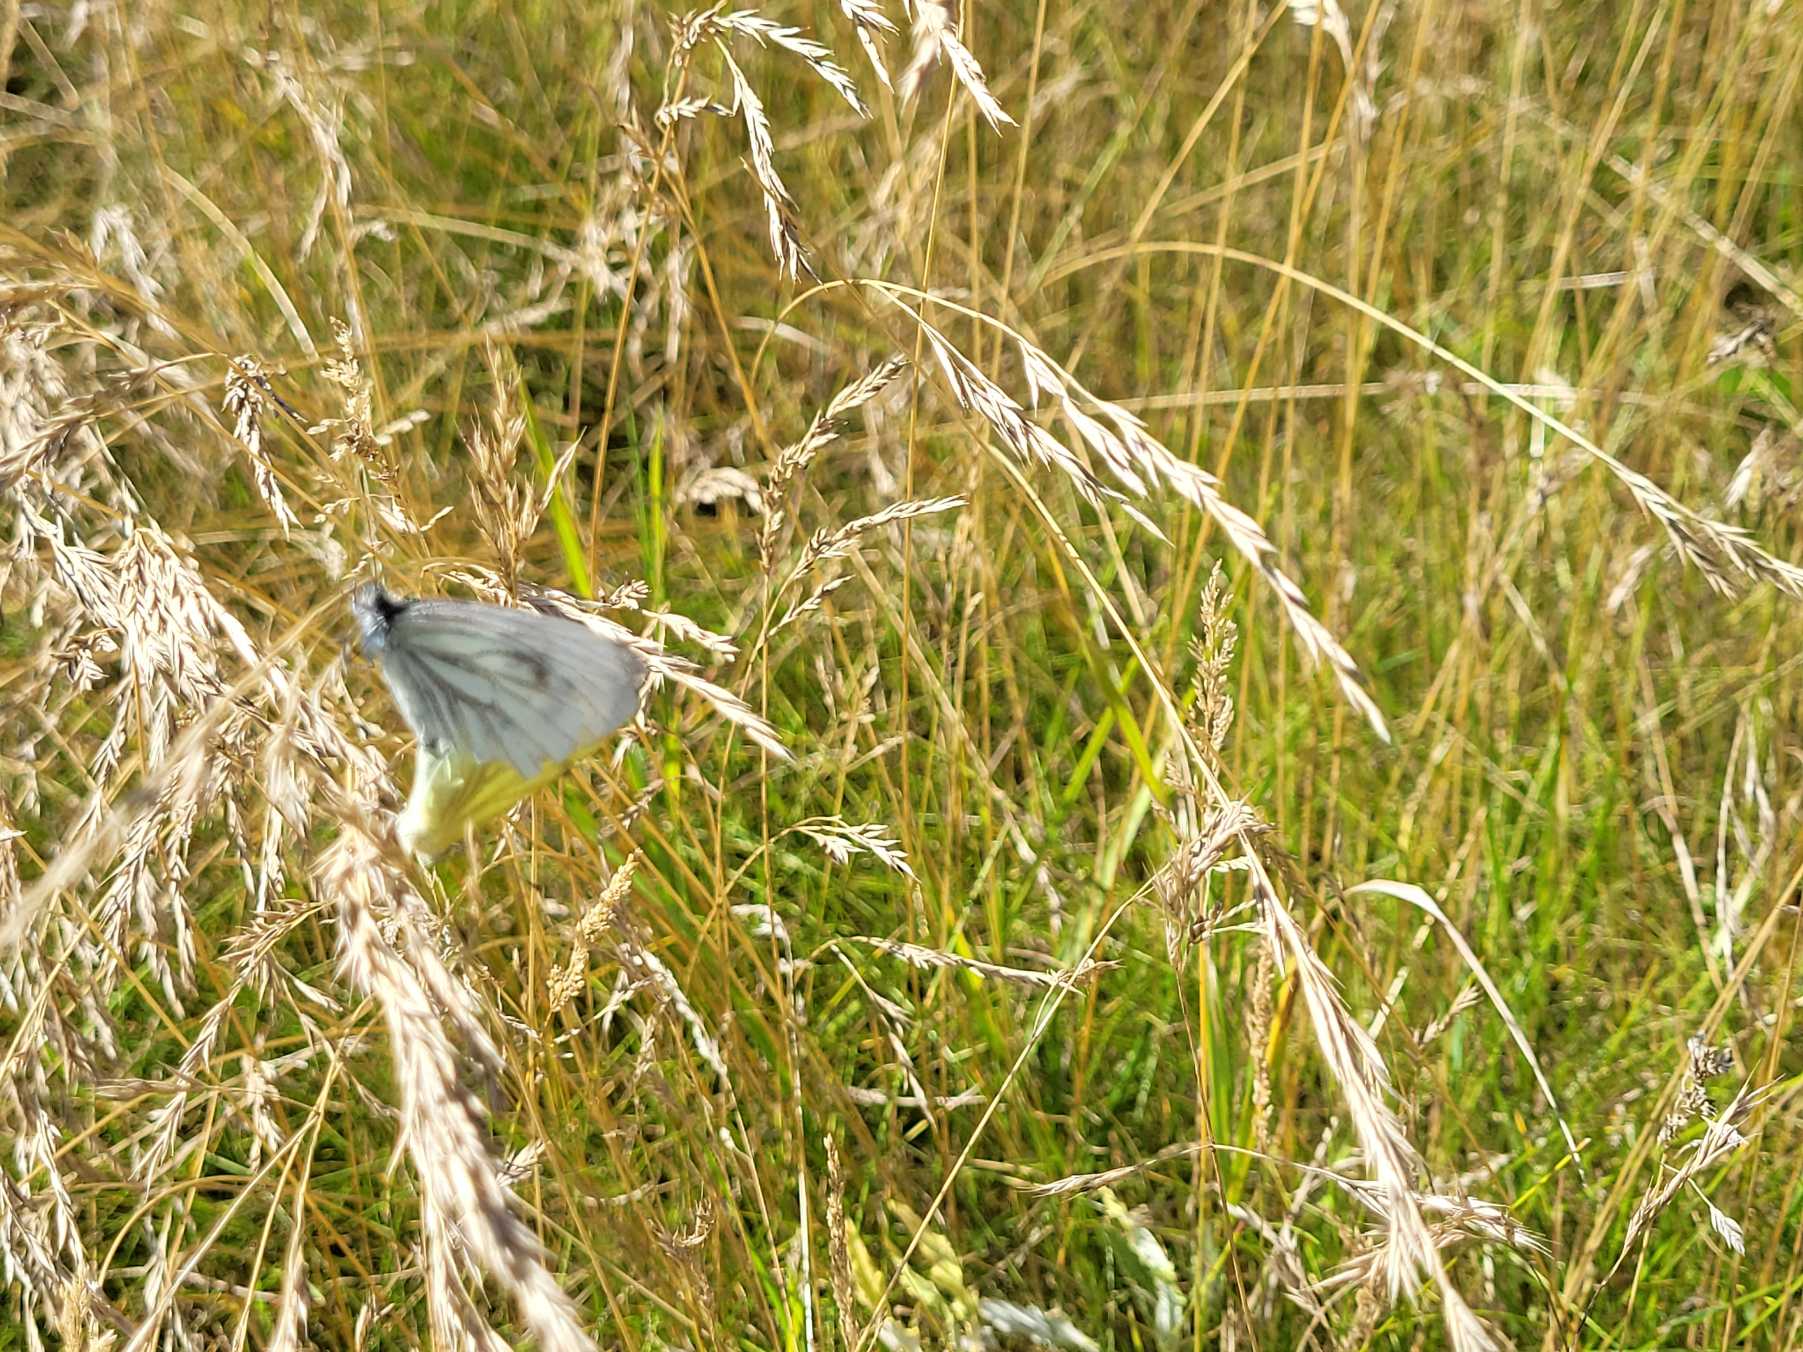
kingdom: Animalia
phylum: Arthropoda
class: Insecta
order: Lepidoptera
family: Pieridae
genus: Pieris
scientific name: Pieris napi
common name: Grønåret kålsommerfugl
